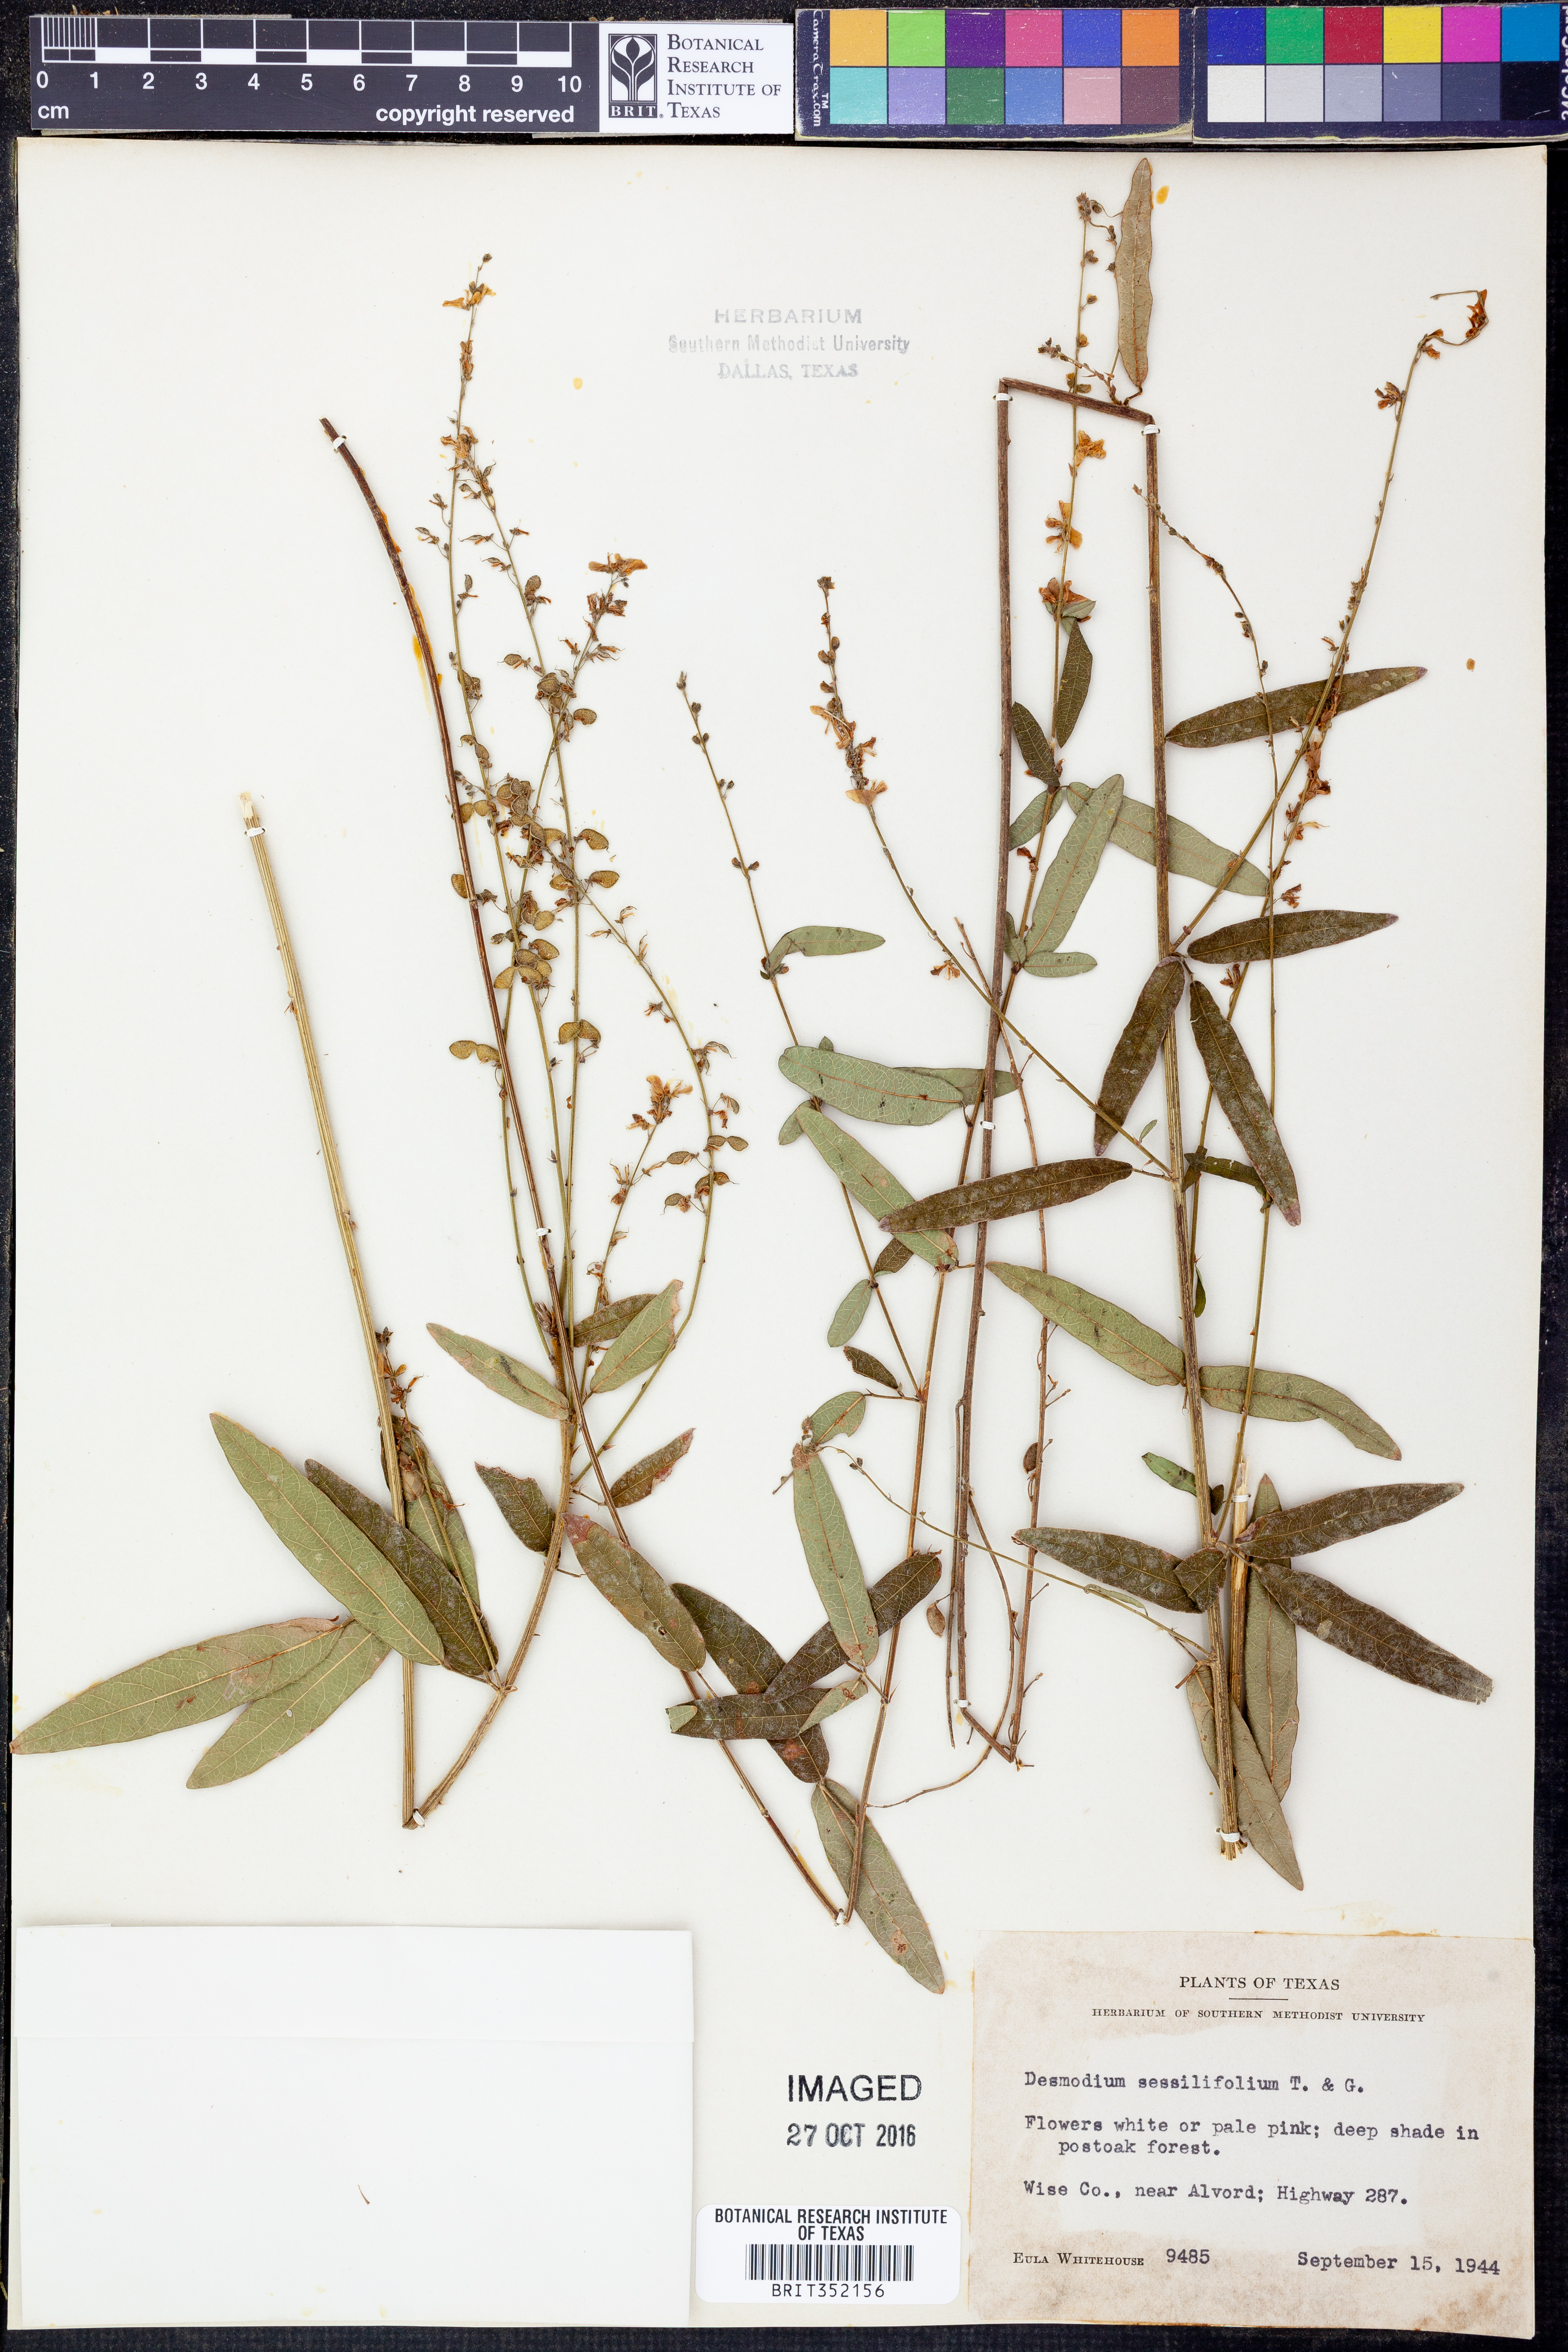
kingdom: Plantae
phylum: Tracheophyta
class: Magnoliopsida
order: Fabales
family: Fabaceae
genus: Desmodium
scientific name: Desmodium sessilifolium
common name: Sessile tick-clover
